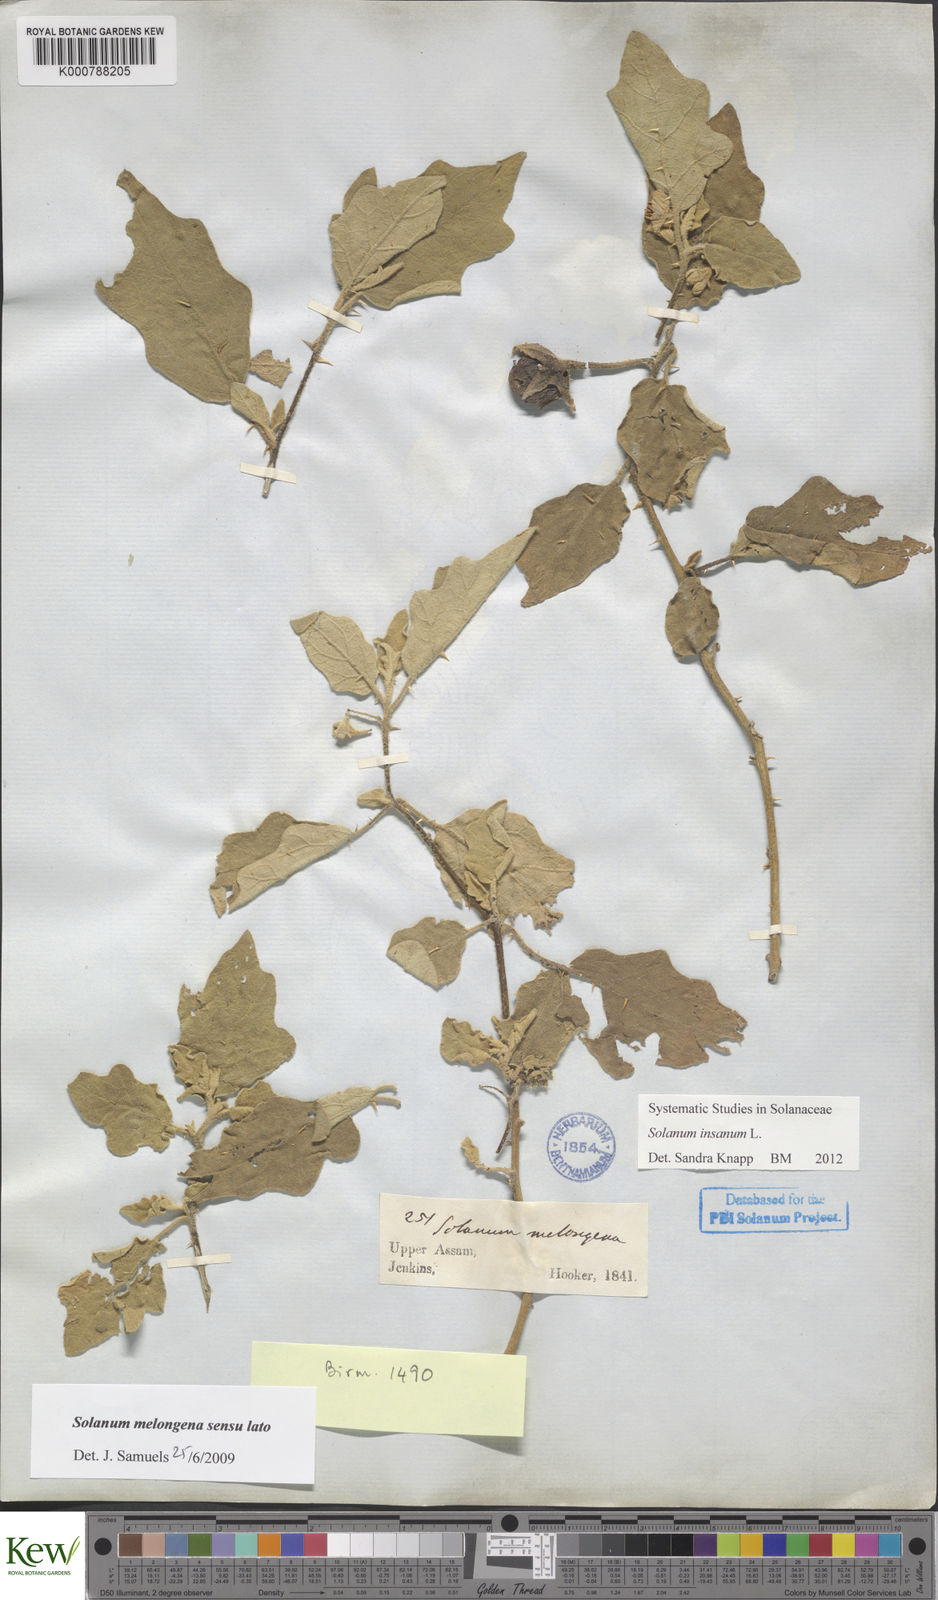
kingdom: Plantae
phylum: Tracheophyta
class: Magnoliopsida
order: Solanales
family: Solanaceae
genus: Solanum
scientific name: Solanum insanum
